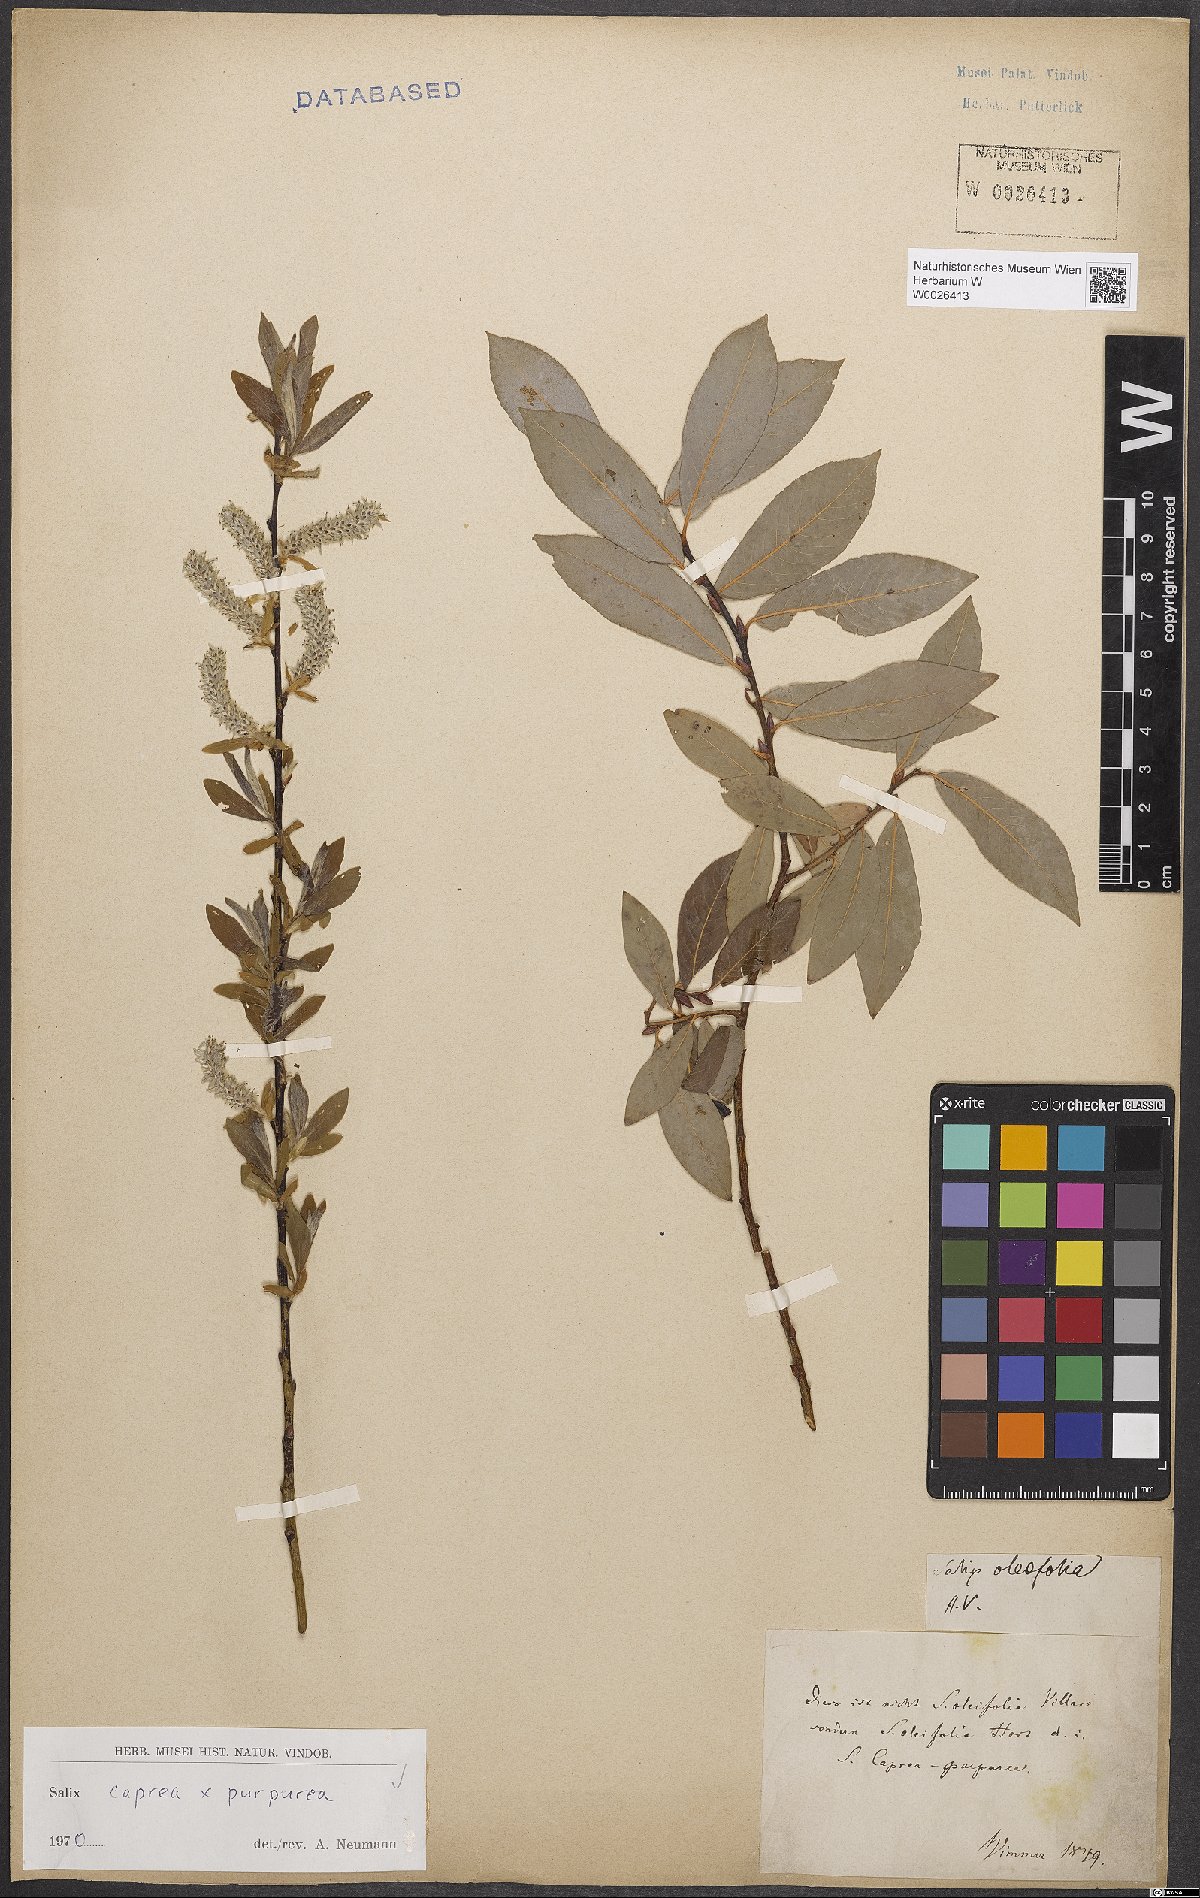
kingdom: Plantae
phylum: Tracheophyta
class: Magnoliopsida
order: Malpighiales
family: Salicaceae
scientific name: Salicaceae
